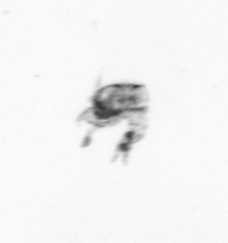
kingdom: Animalia
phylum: Arthropoda
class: Copepoda
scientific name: Copepoda
